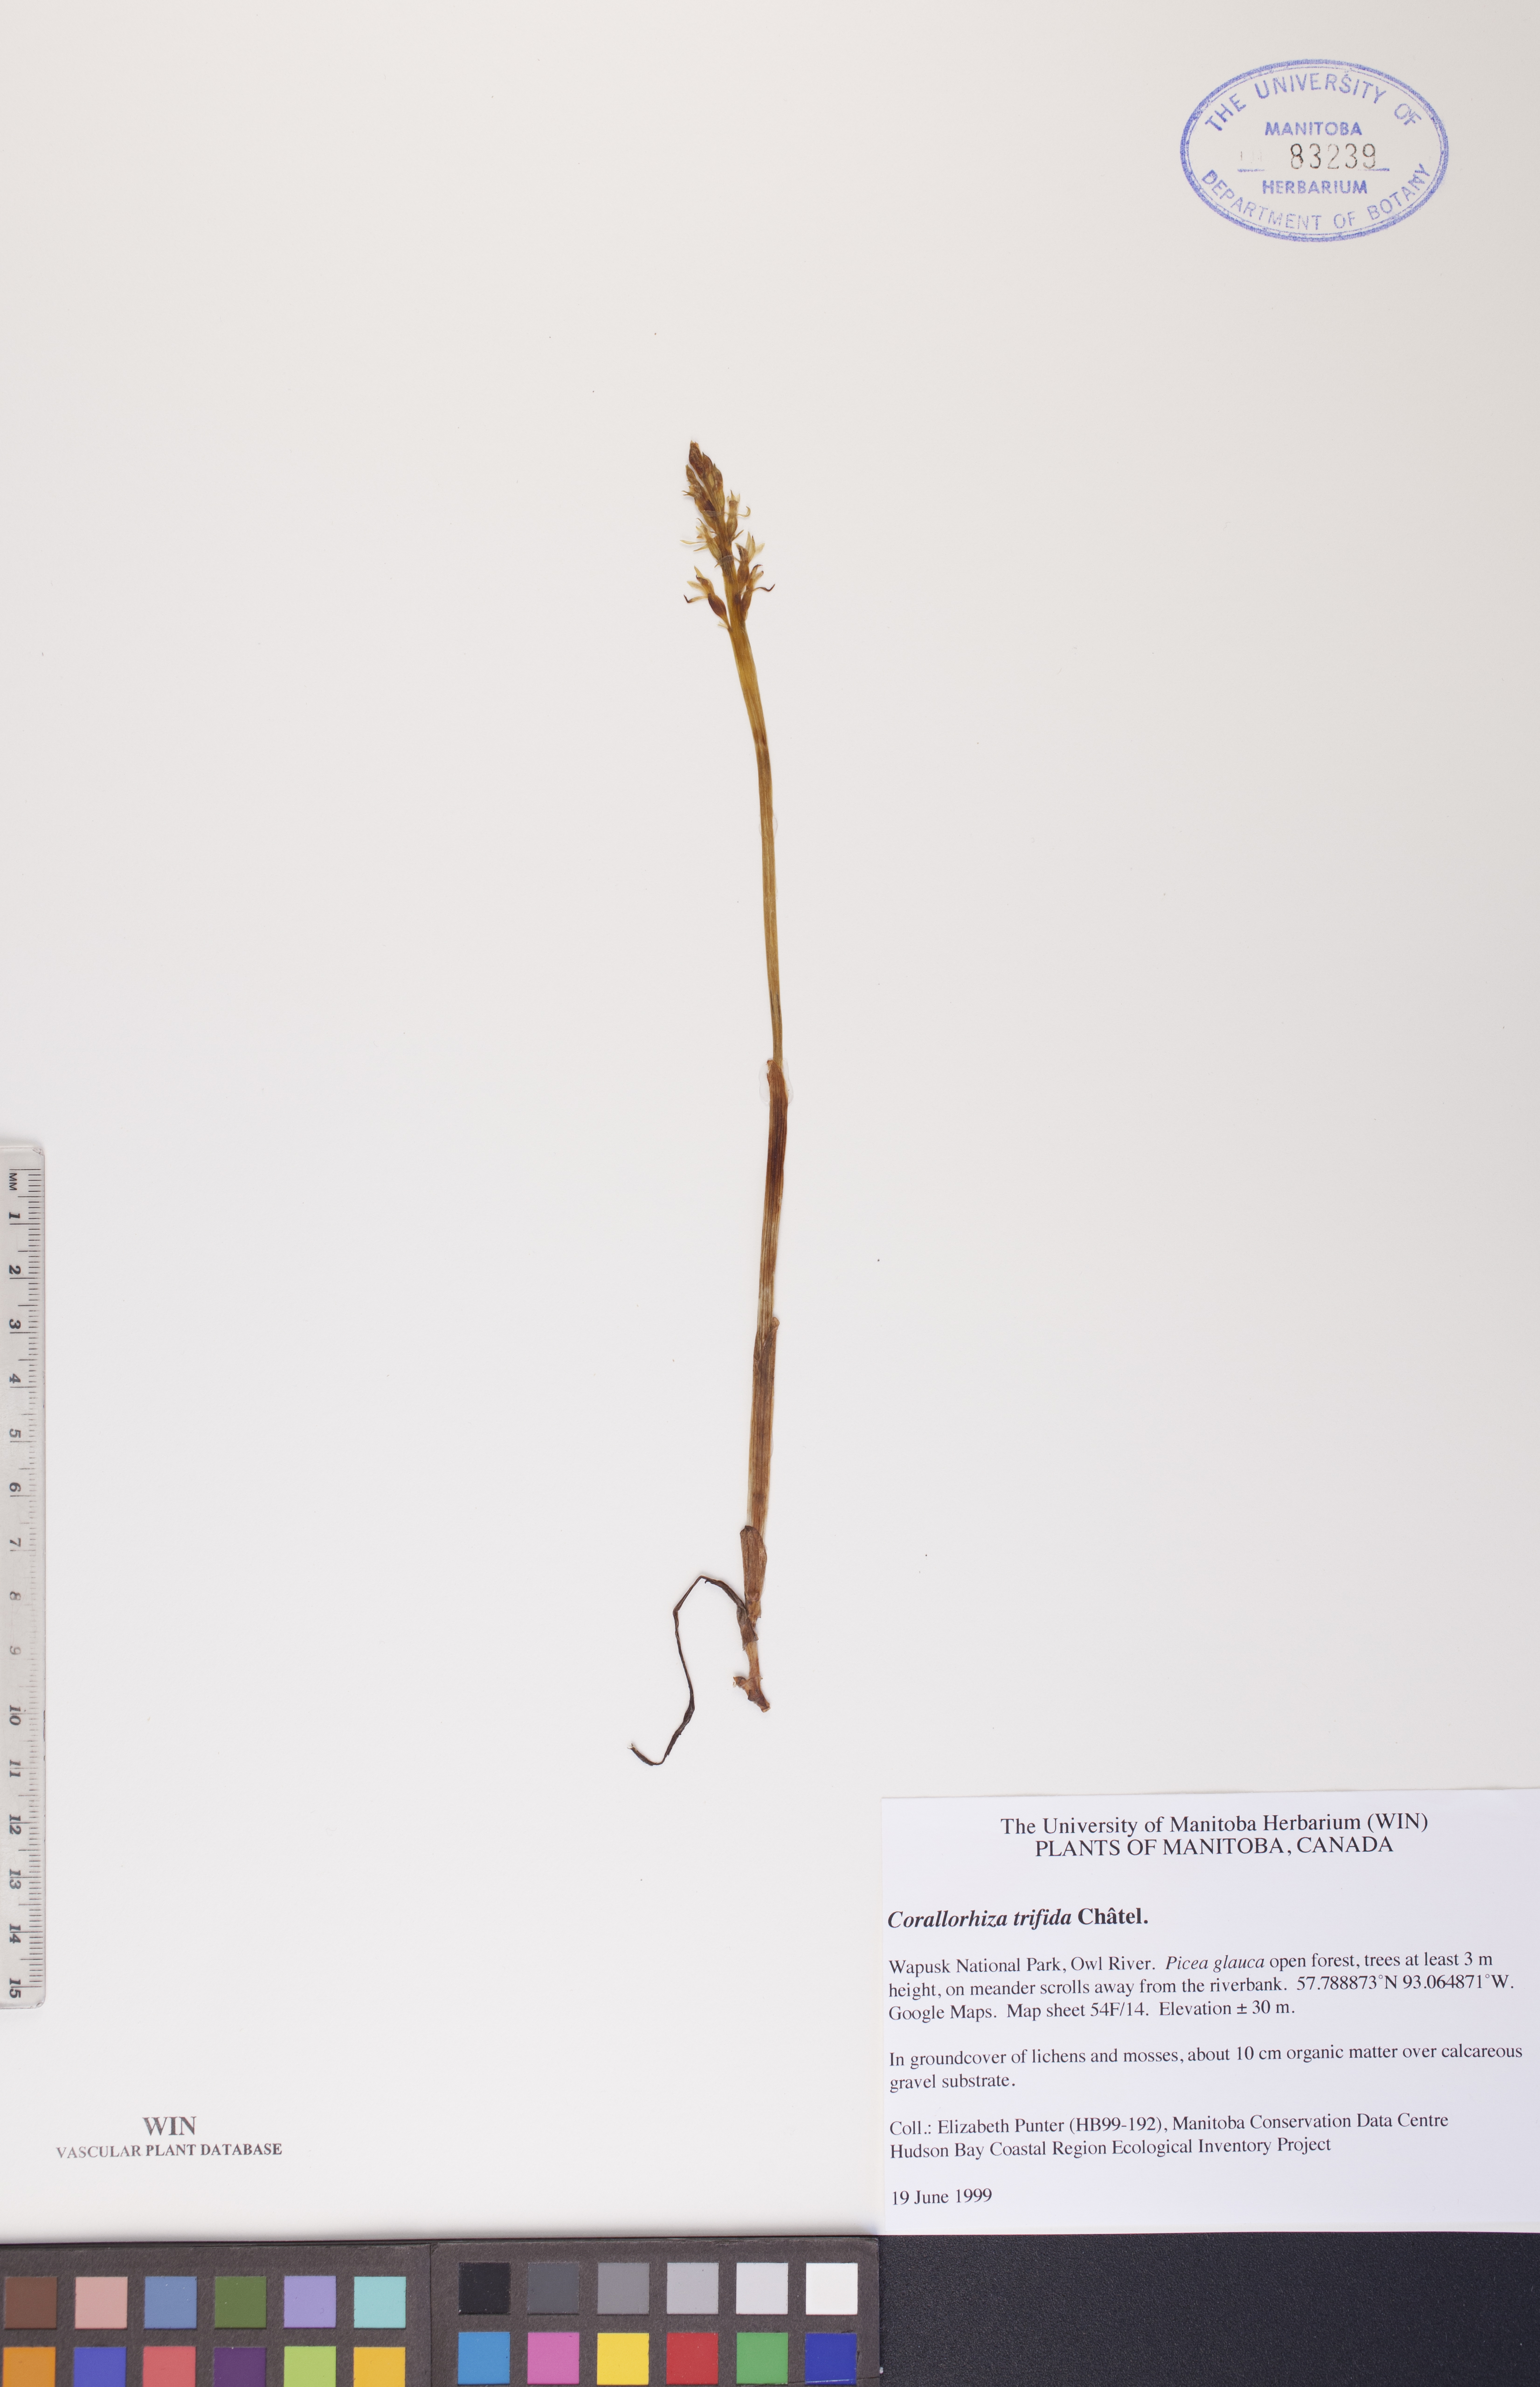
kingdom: Plantae
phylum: Tracheophyta
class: Liliopsida
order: Asparagales
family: Orchidaceae
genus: Corallorhiza
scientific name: Corallorhiza trifida
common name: Yellow coralroot
